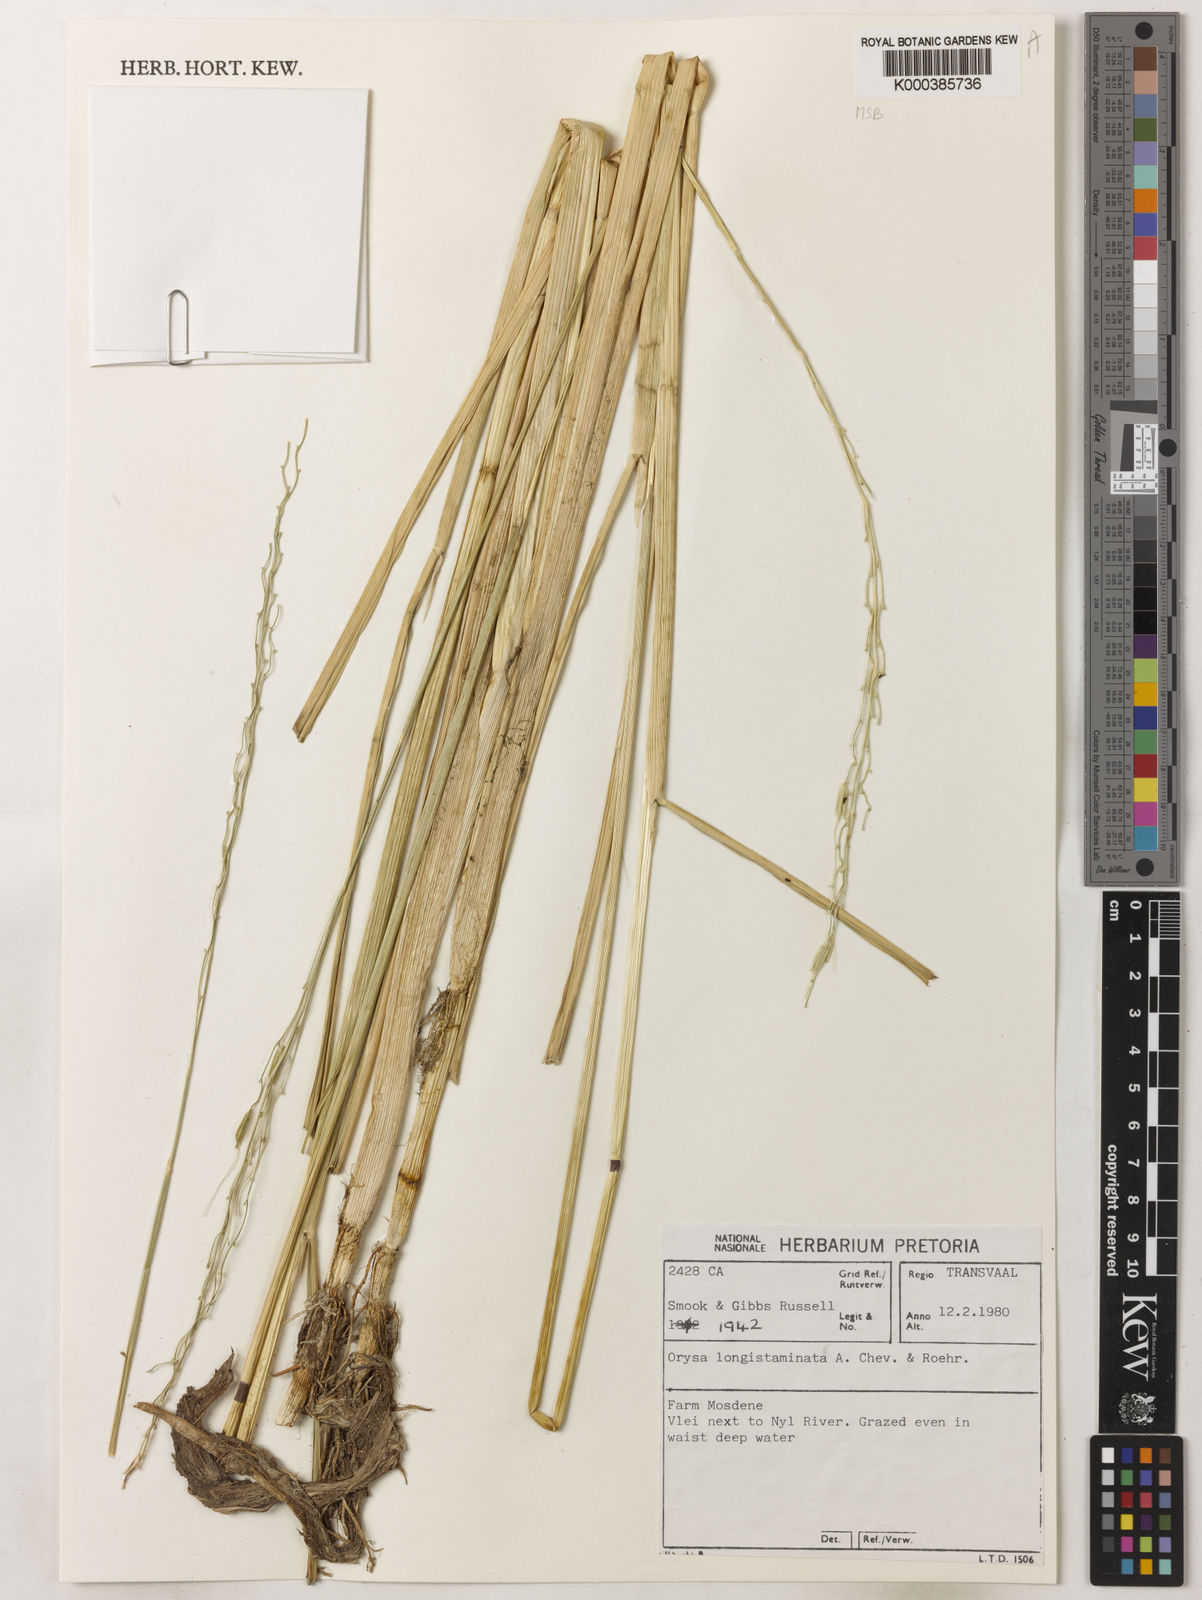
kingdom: Plantae
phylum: Tracheophyta
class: Liliopsida
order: Poales
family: Poaceae
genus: Oryza
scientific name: Oryza longistaminata
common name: Red rice
